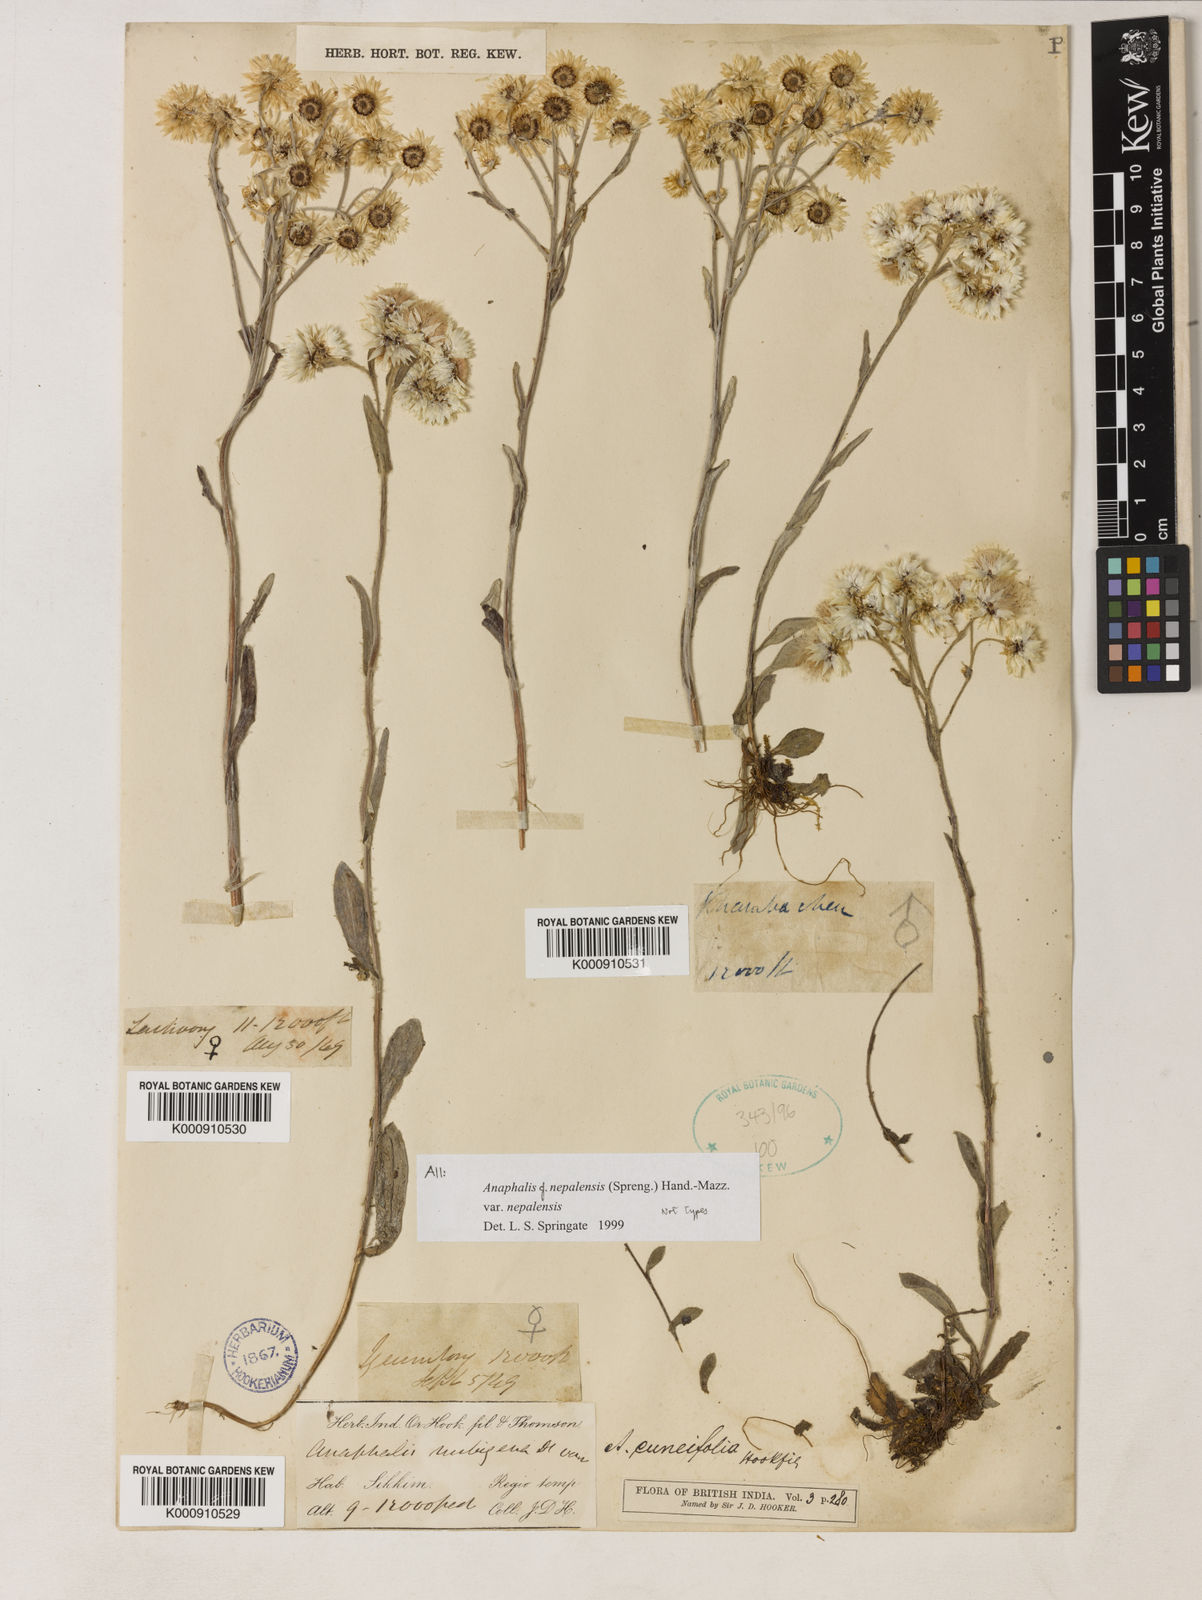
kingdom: Plantae
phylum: Tracheophyta
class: Magnoliopsida
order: Asterales
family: Asteraceae
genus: Anaphalis
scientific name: Anaphalis nepalensis
